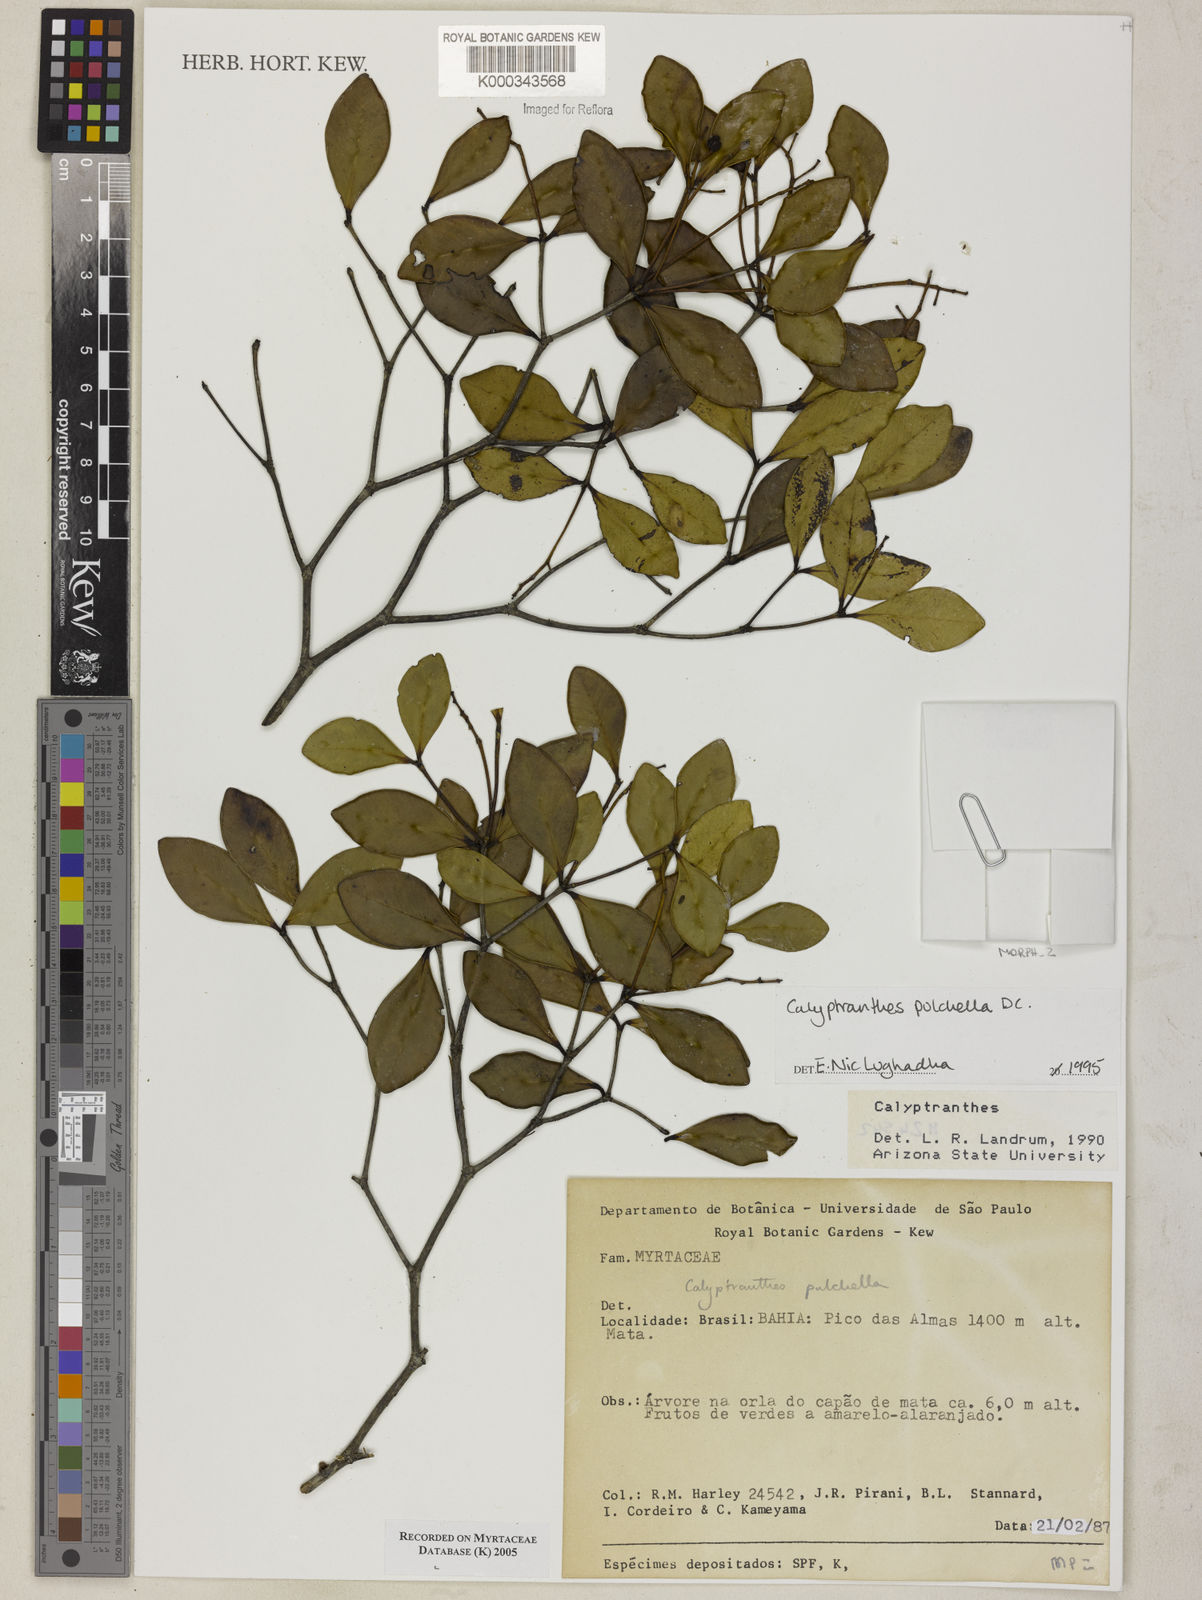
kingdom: Plantae
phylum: Tracheophyta
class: Magnoliopsida
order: Myrtales
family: Myrtaceae
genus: Myrcia
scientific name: Myrcia pulchella
